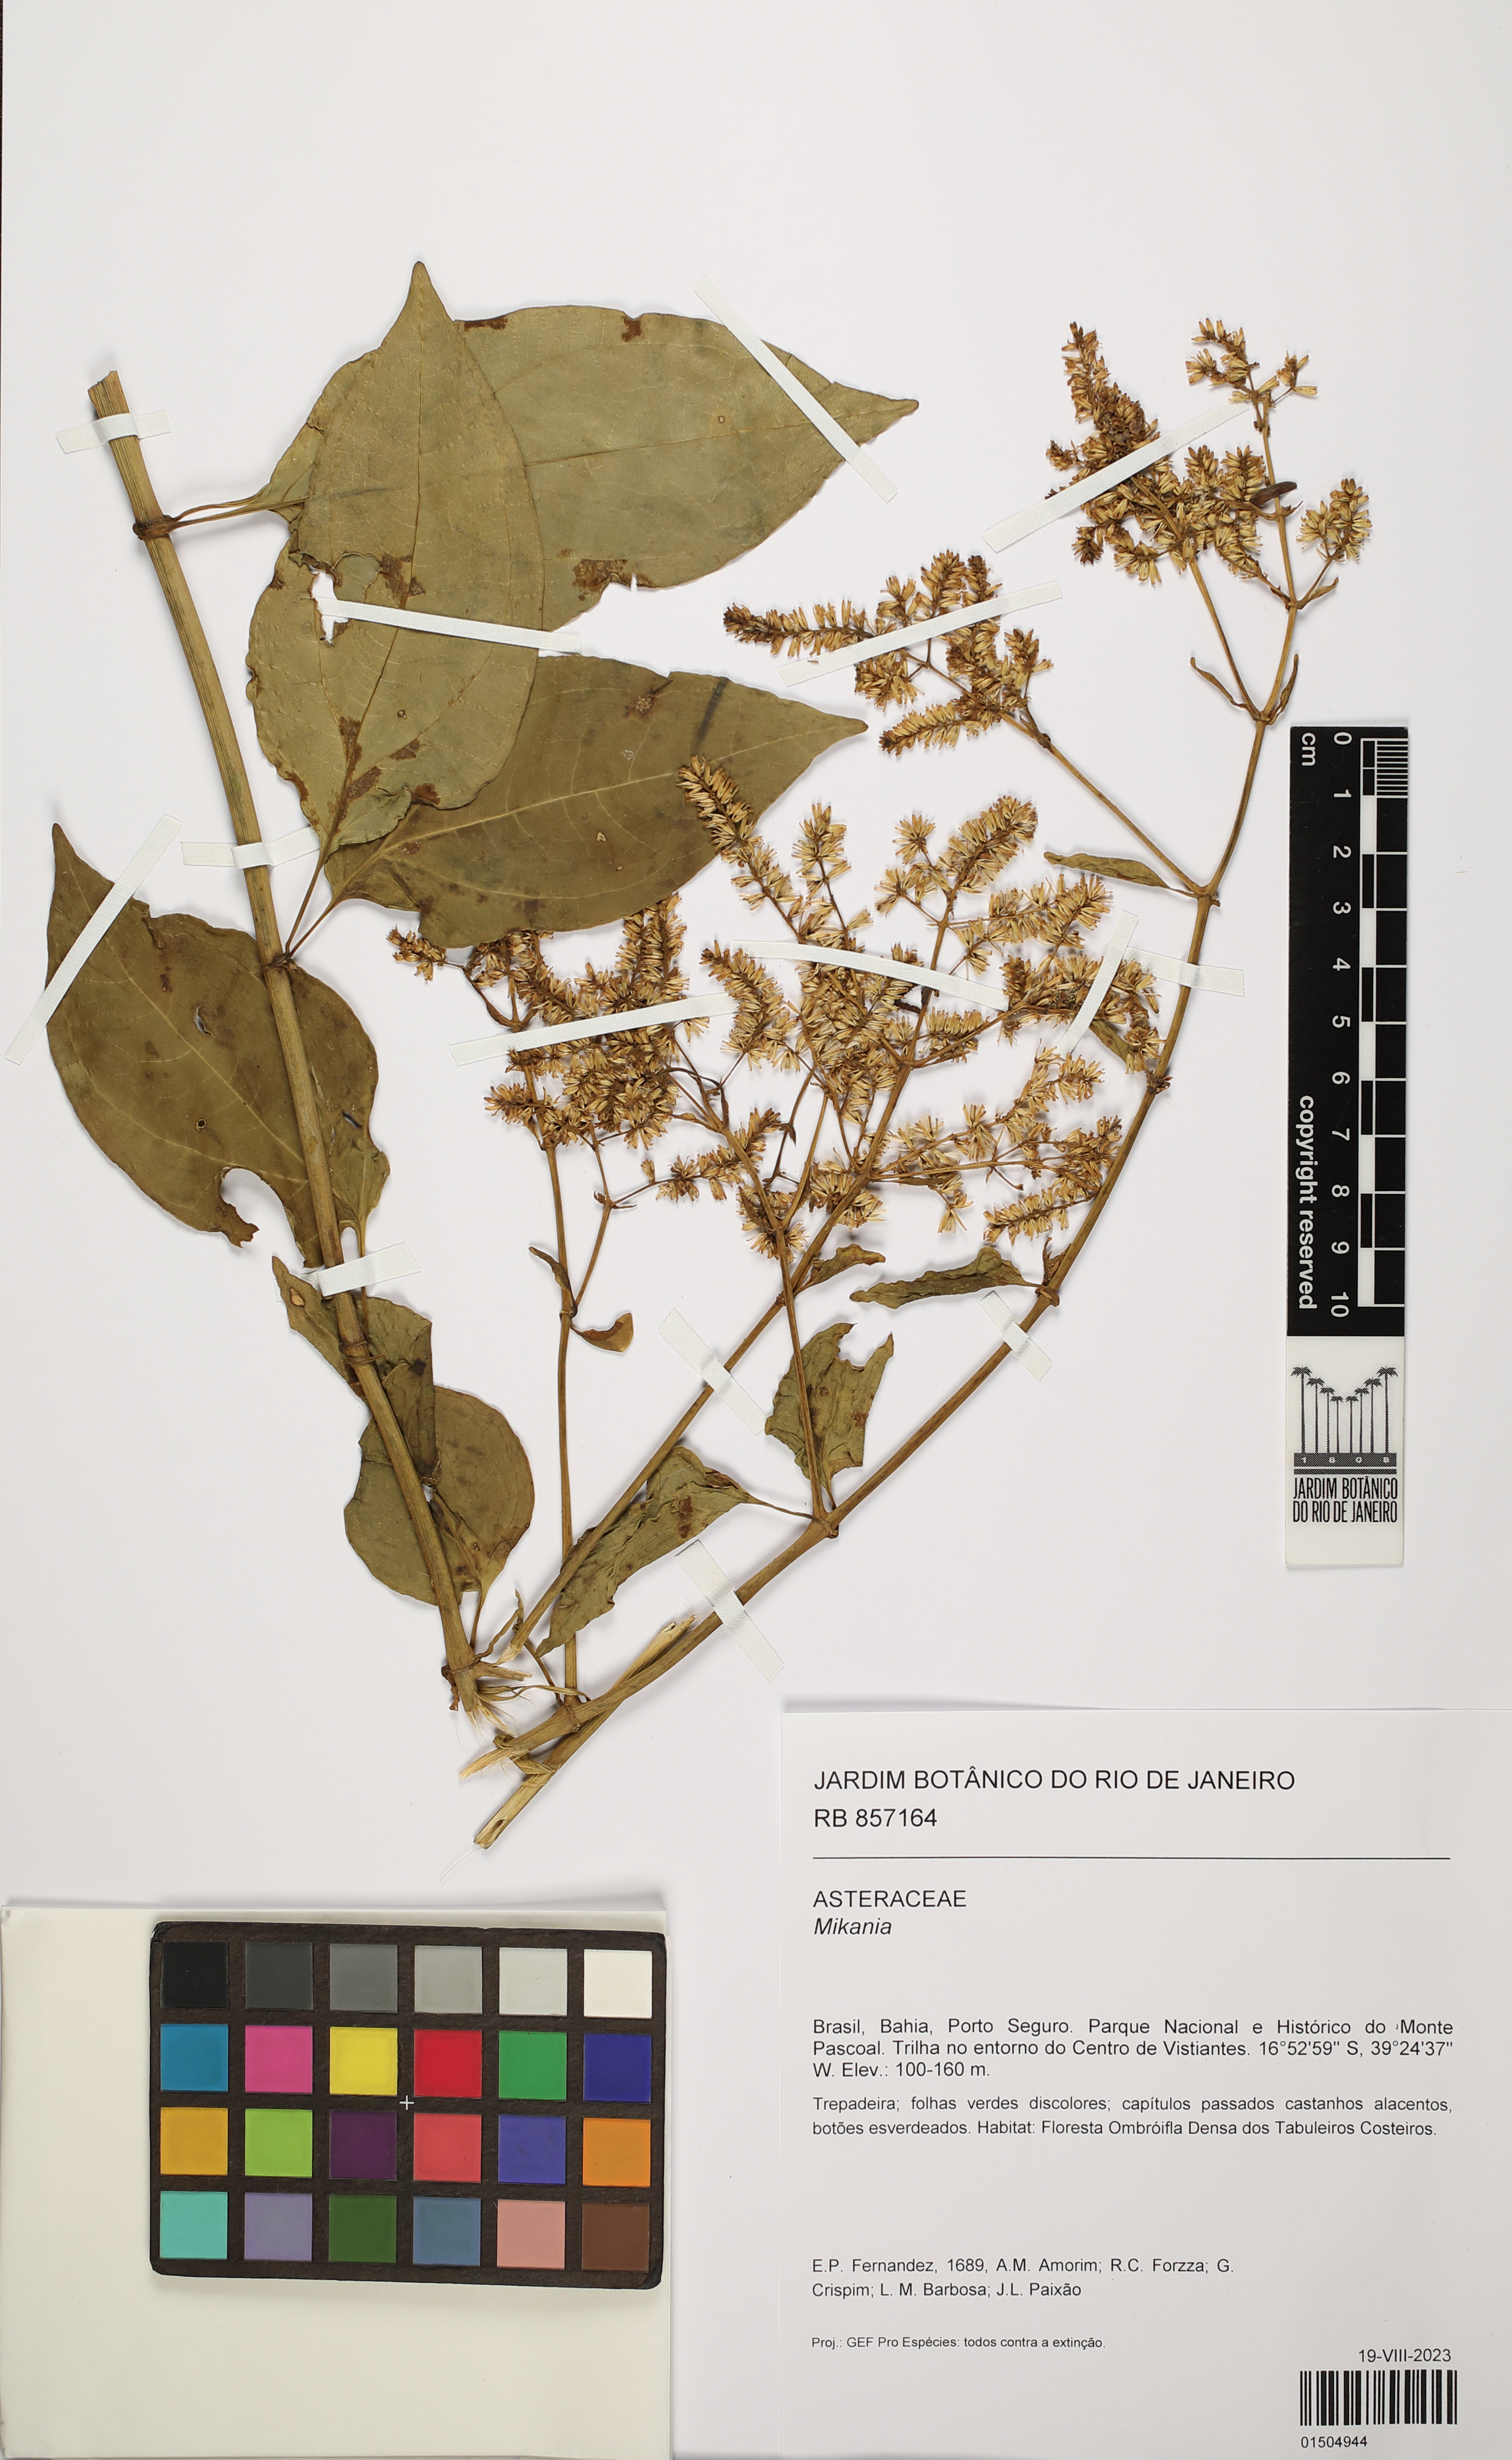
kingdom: Plantae
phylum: Tracheophyta
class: Magnoliopsida
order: Asterales
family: Asteraceae
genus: Mikania
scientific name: Mikania
